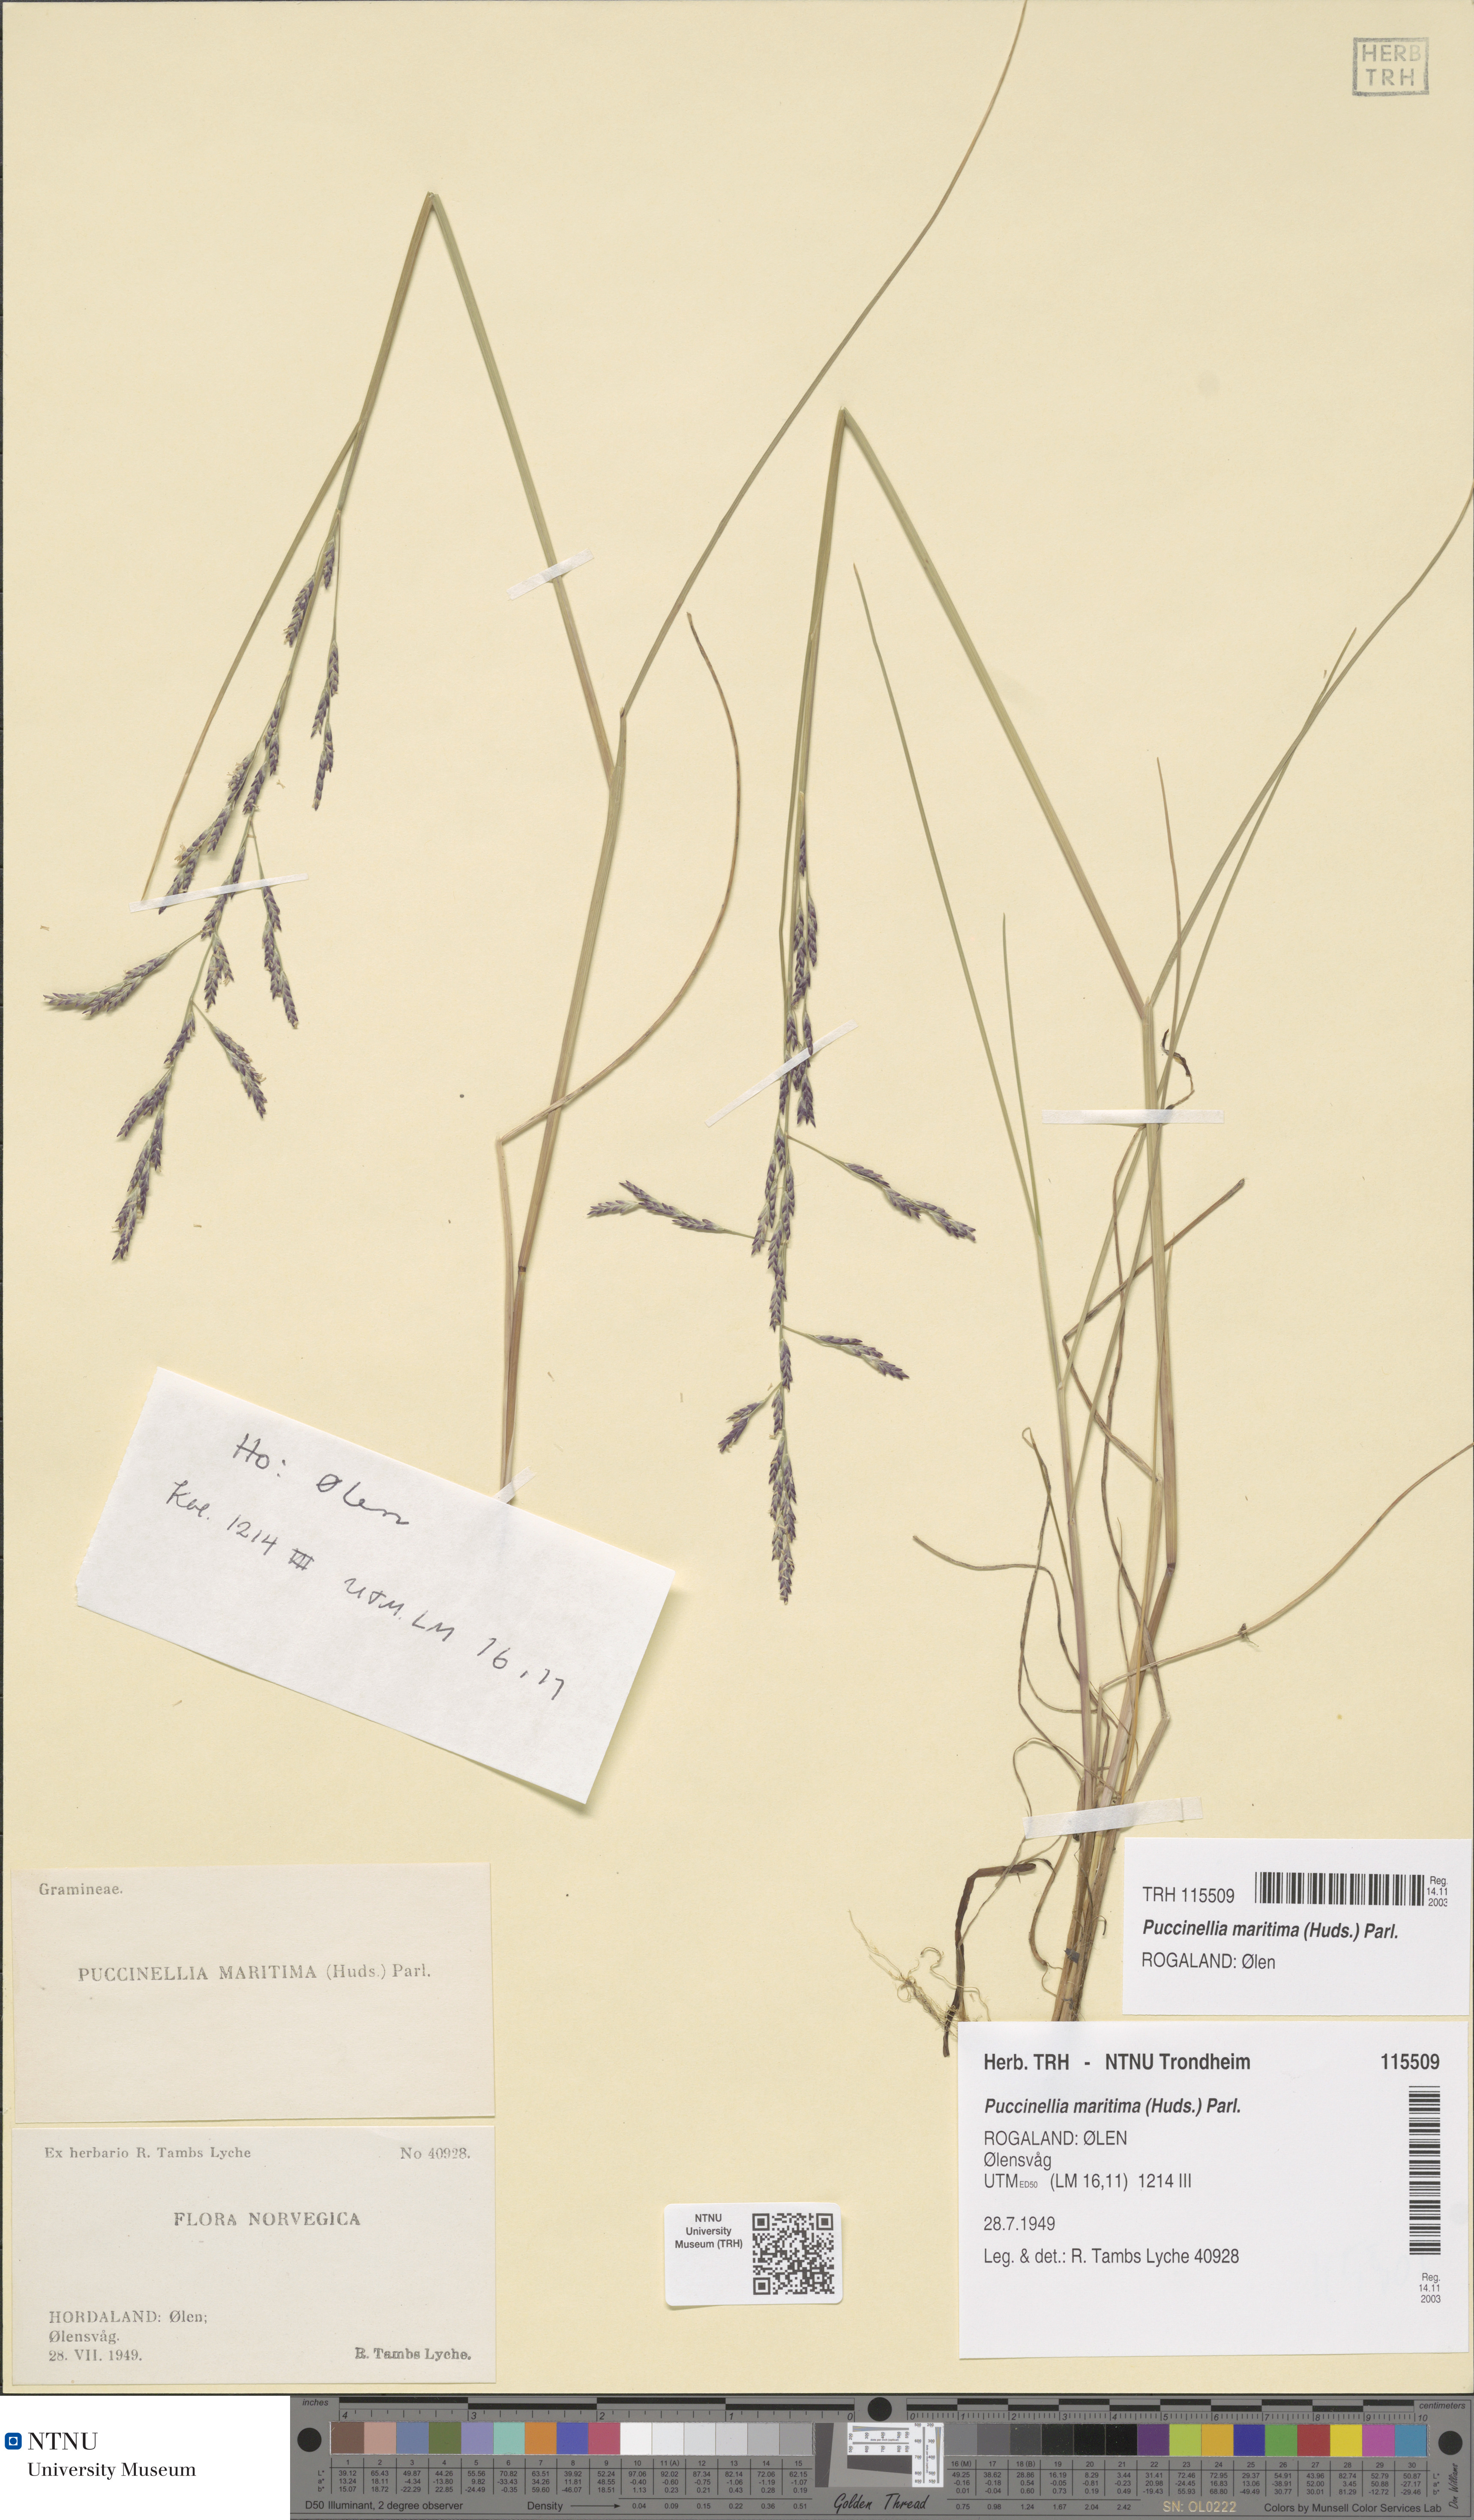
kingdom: Plantae
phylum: Tracheophyta
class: Liliopsida
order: Poales
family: Poaceae
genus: Puccinellia
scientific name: Puccinellia maritima
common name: Common saltmarsh grass
